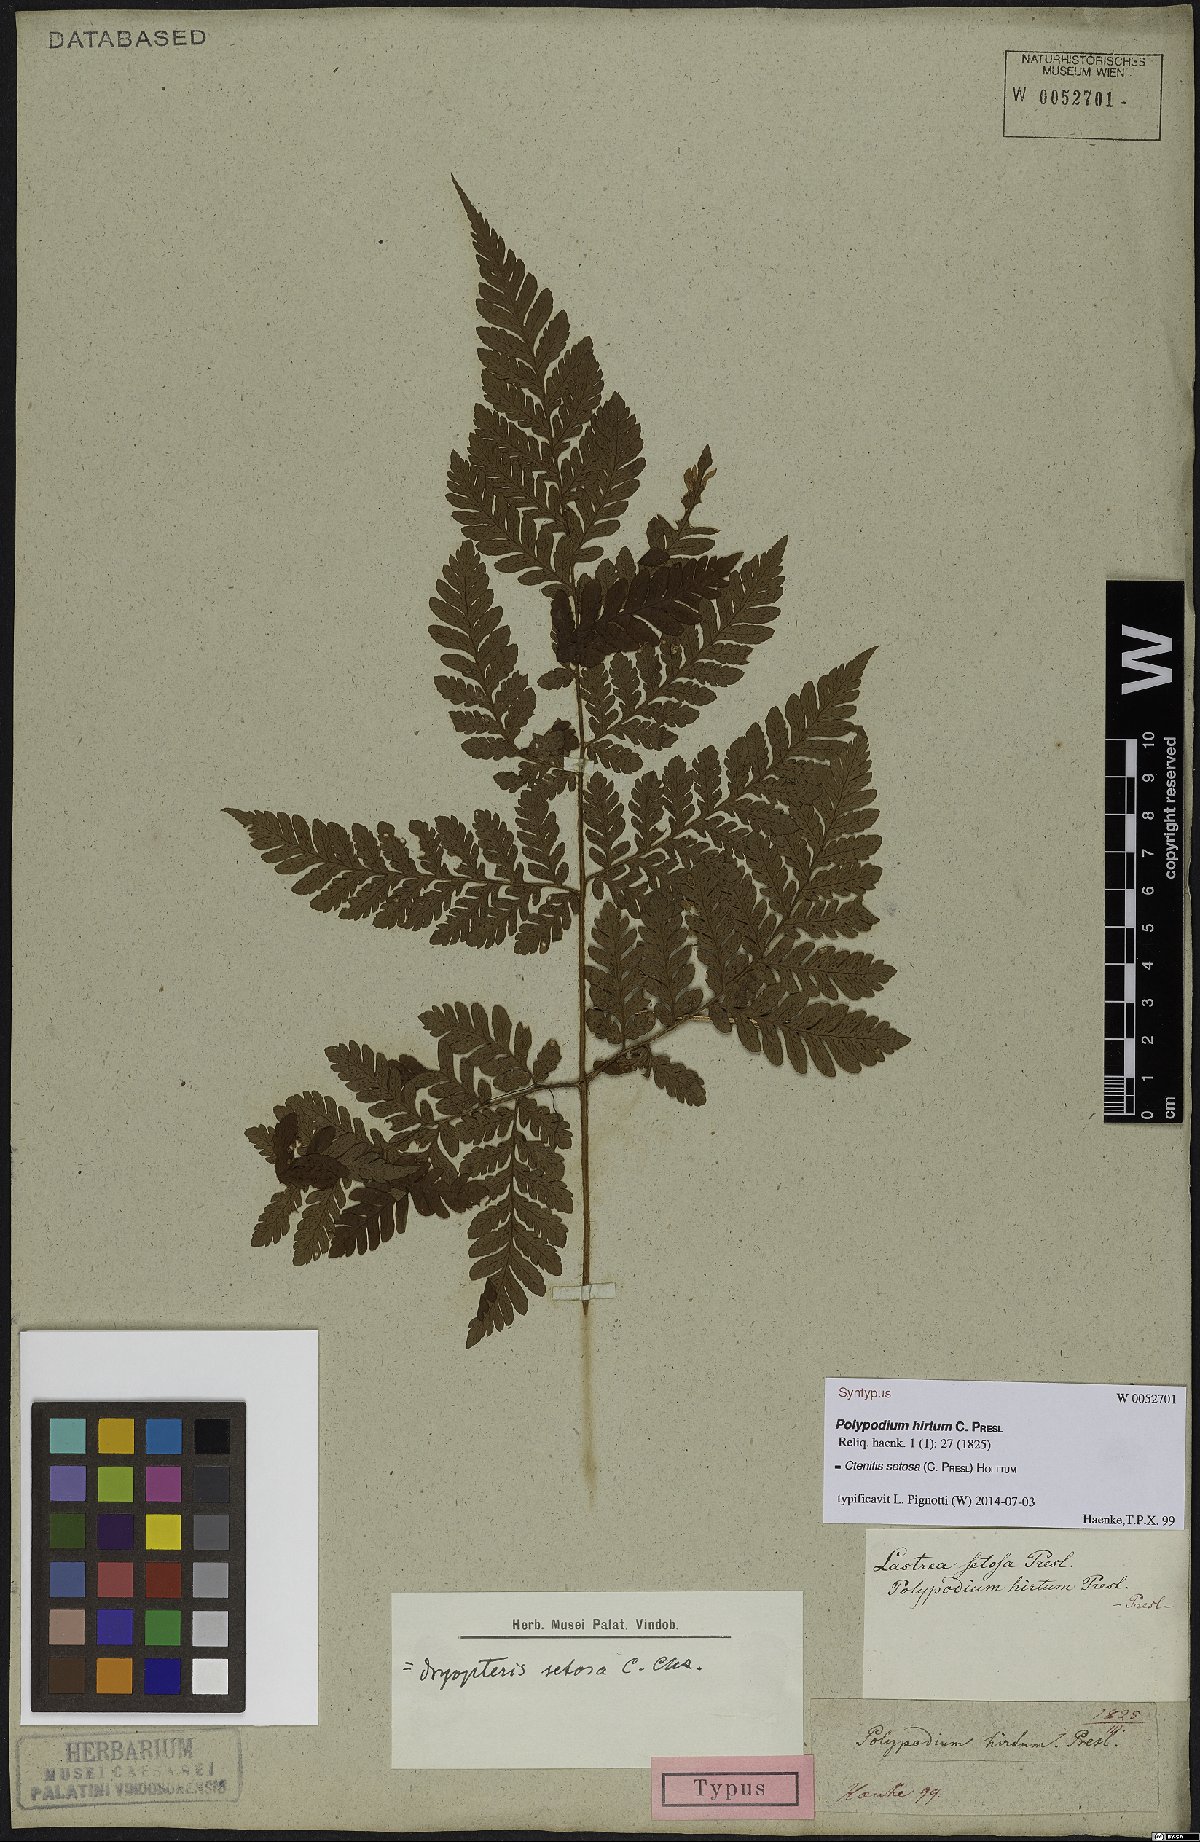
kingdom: Plantae
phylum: Tracheophyta
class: Polypodiopsida
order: Polypodiales
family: Dryopteridaceae
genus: Ctenitis
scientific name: Ctenitis setosa
